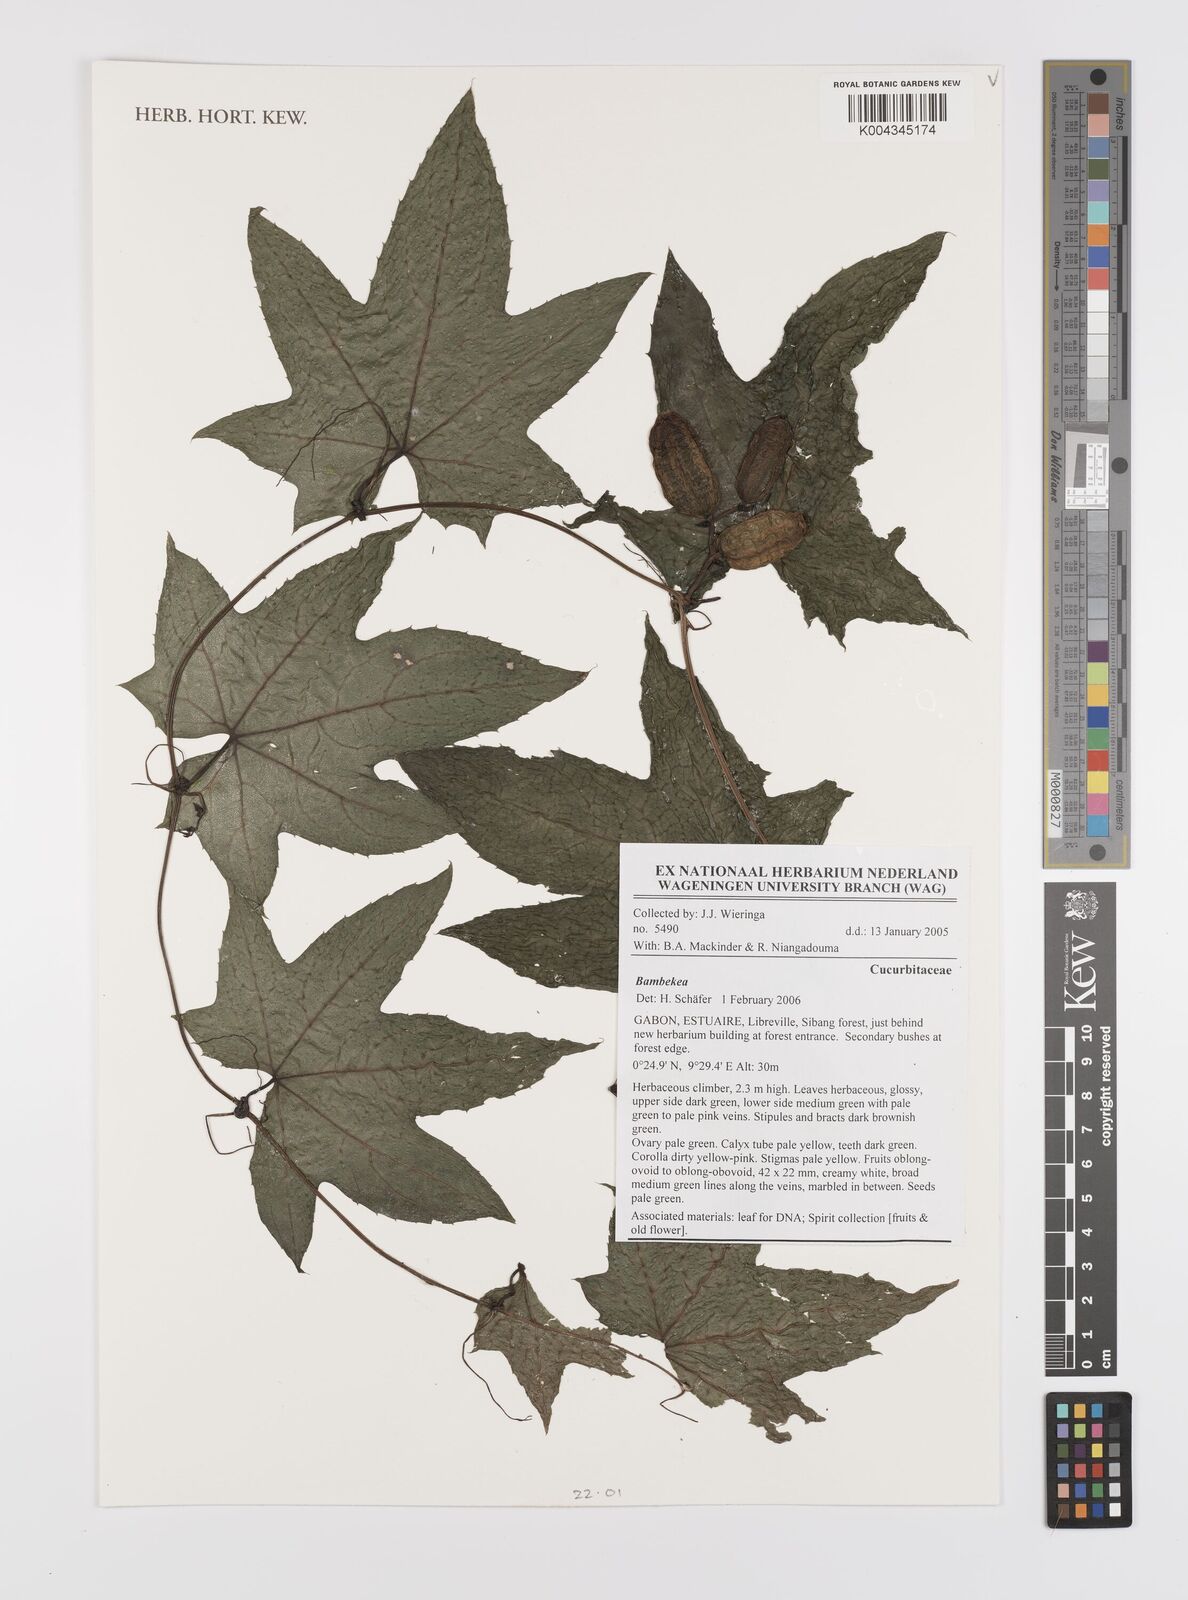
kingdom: Plantae
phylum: Tracheophyta
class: Magnoliopsida
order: Cucurbitales
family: Cucurbitaceae
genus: Bambekea
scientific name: Bambekea
